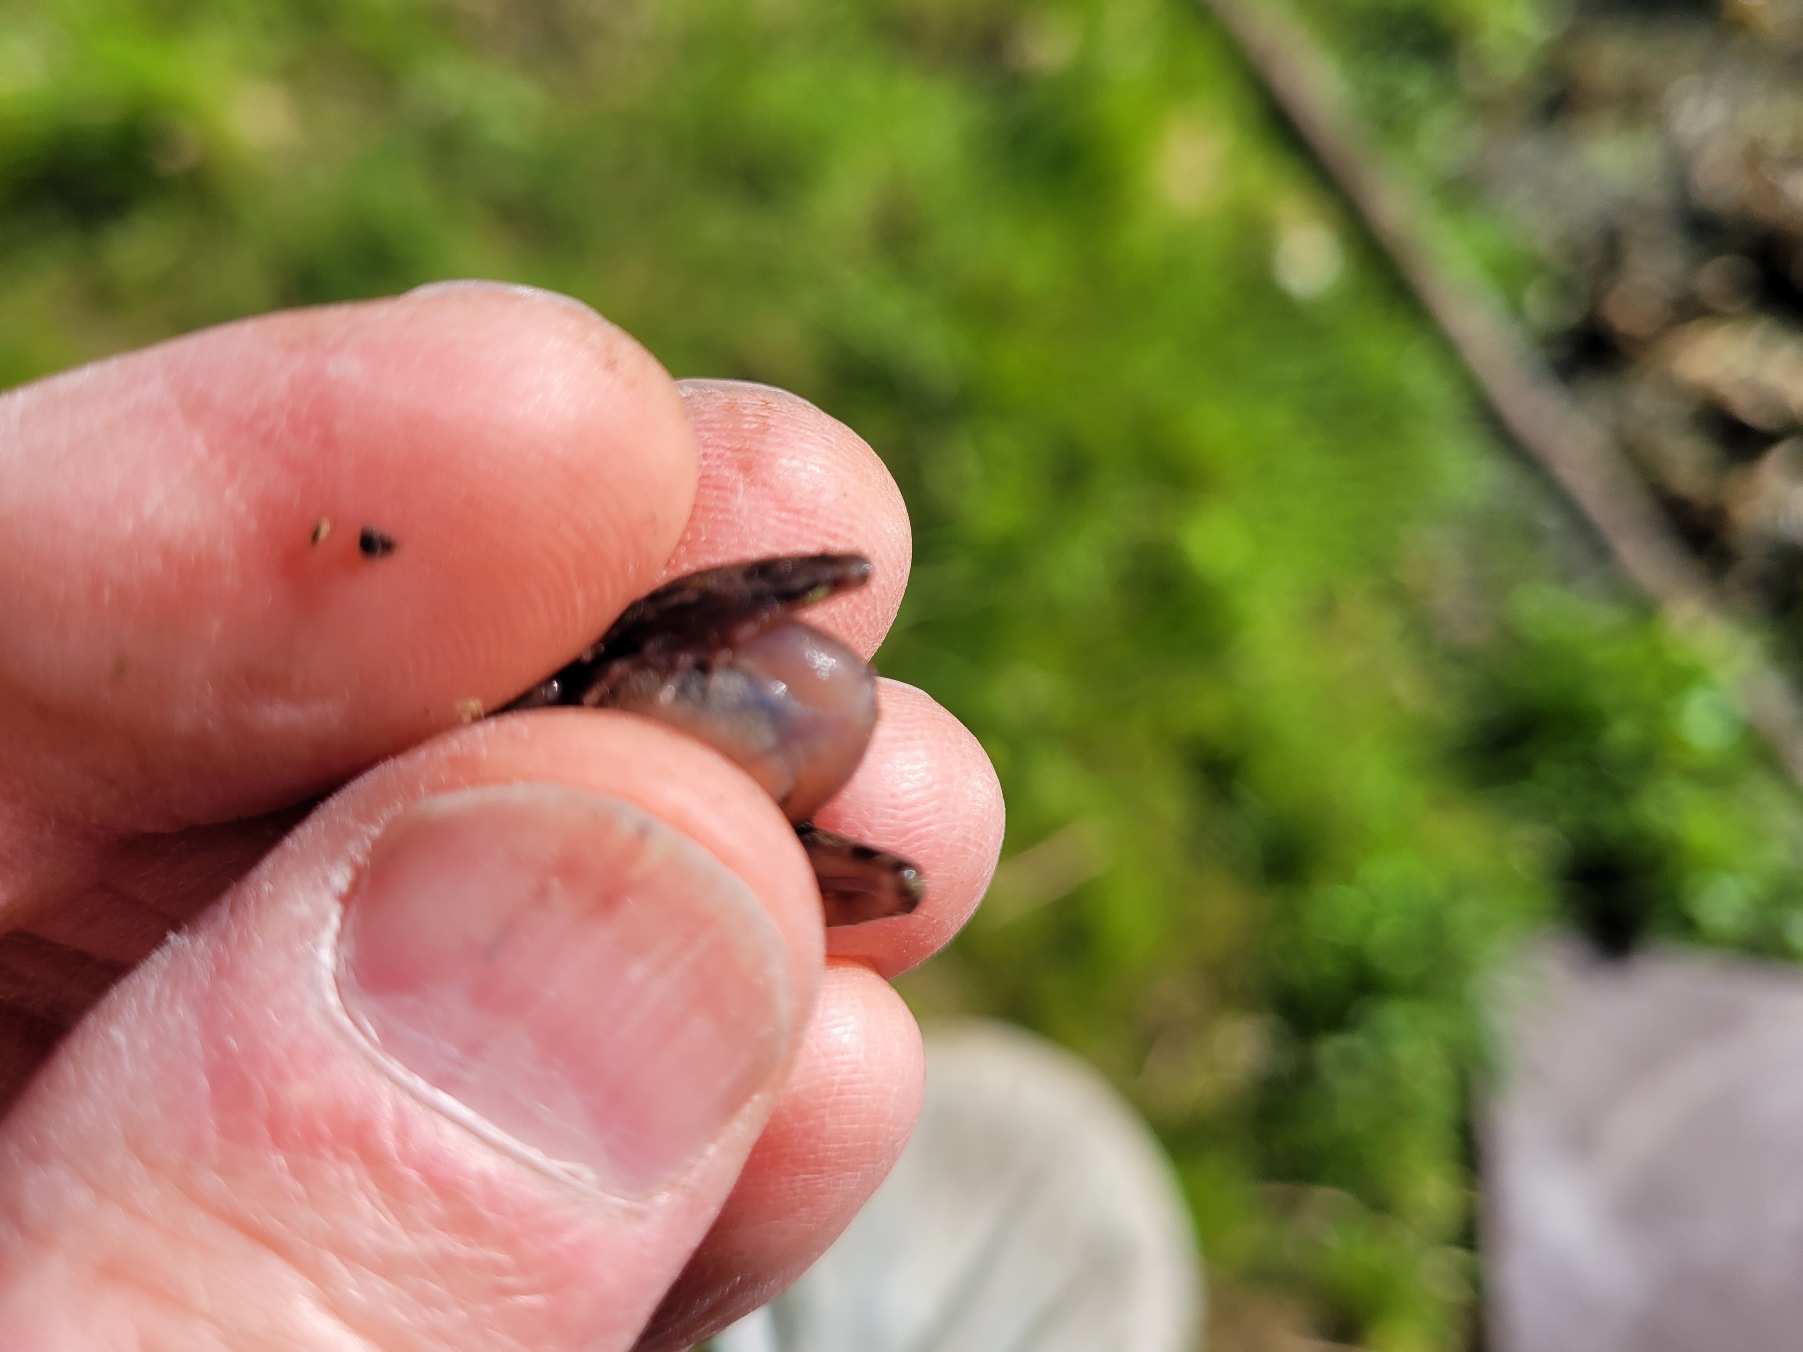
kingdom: Animalia
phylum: Chordata
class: Amphibia
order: Anura
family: Ranidae
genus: Rana
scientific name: Rana temporaria
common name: Butsnudet frø
